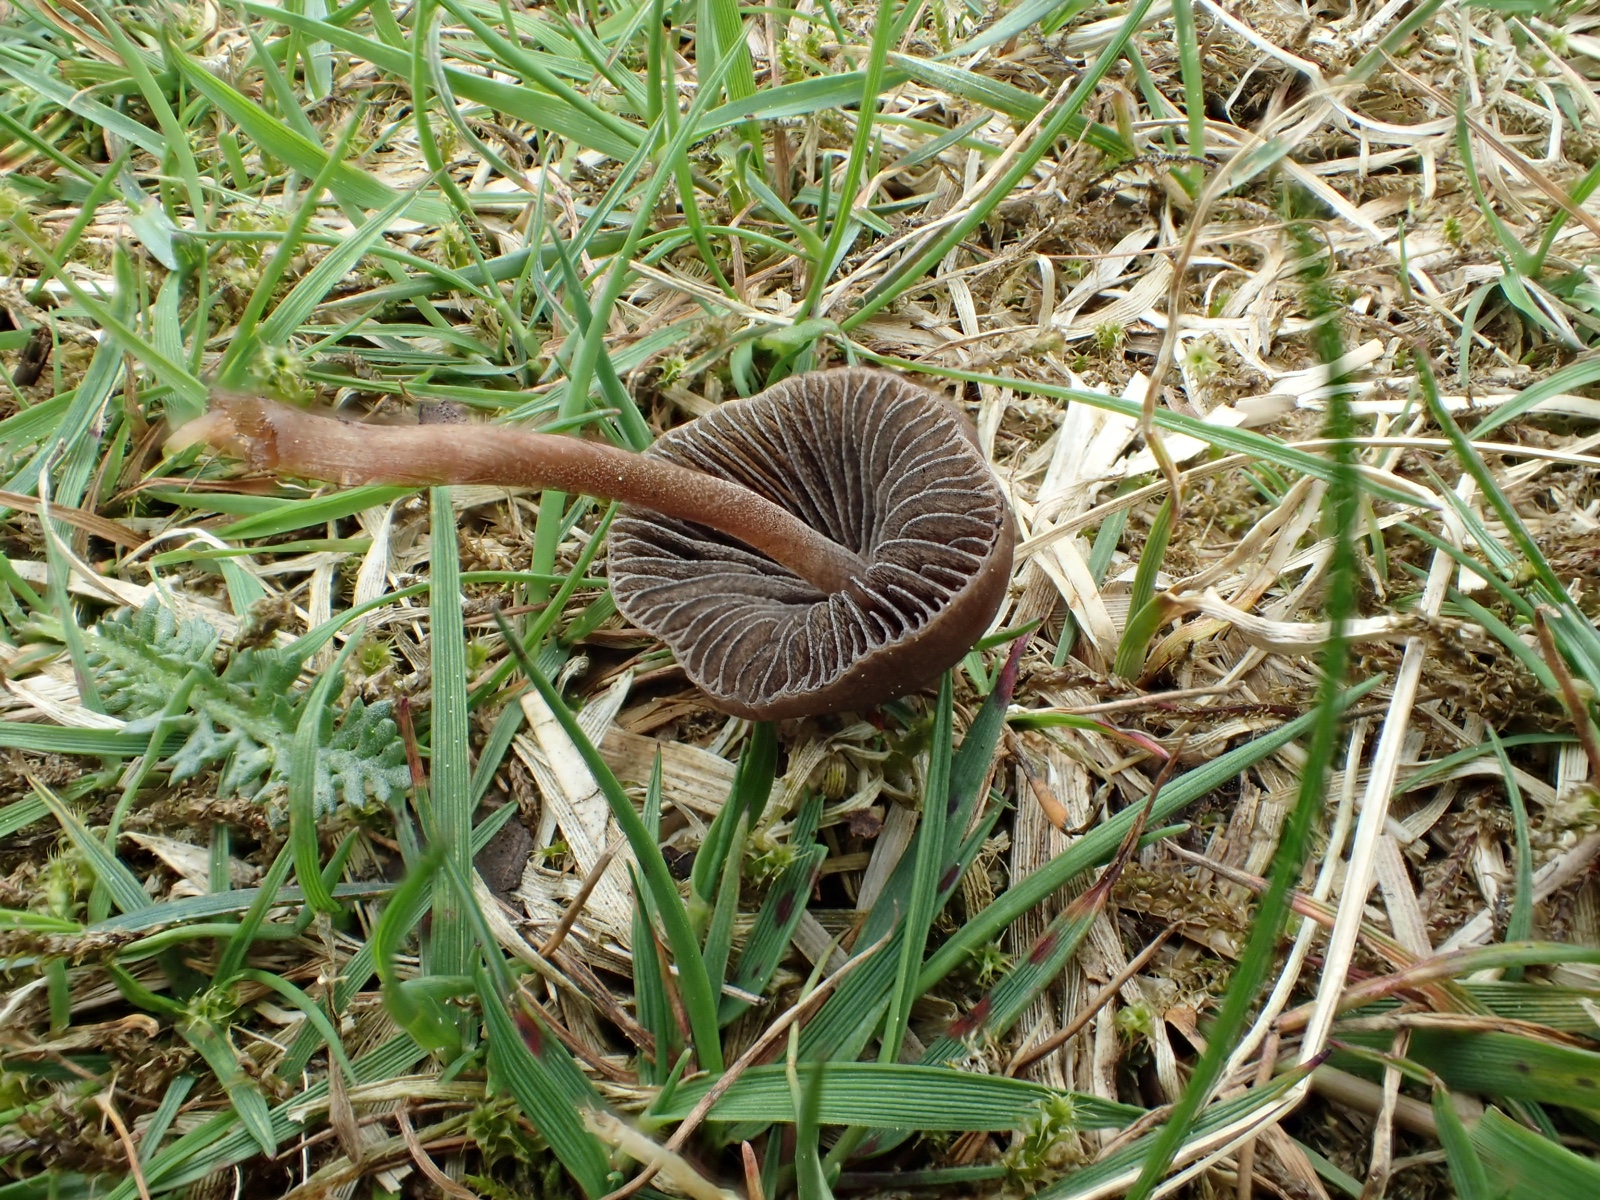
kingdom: Fungi
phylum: Basidiomycota
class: Agaricomycetes
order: Agaricales
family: Bolbitiaceae
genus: Panaeolus
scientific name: Panaeolus fimicola
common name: tidlig glanshat
